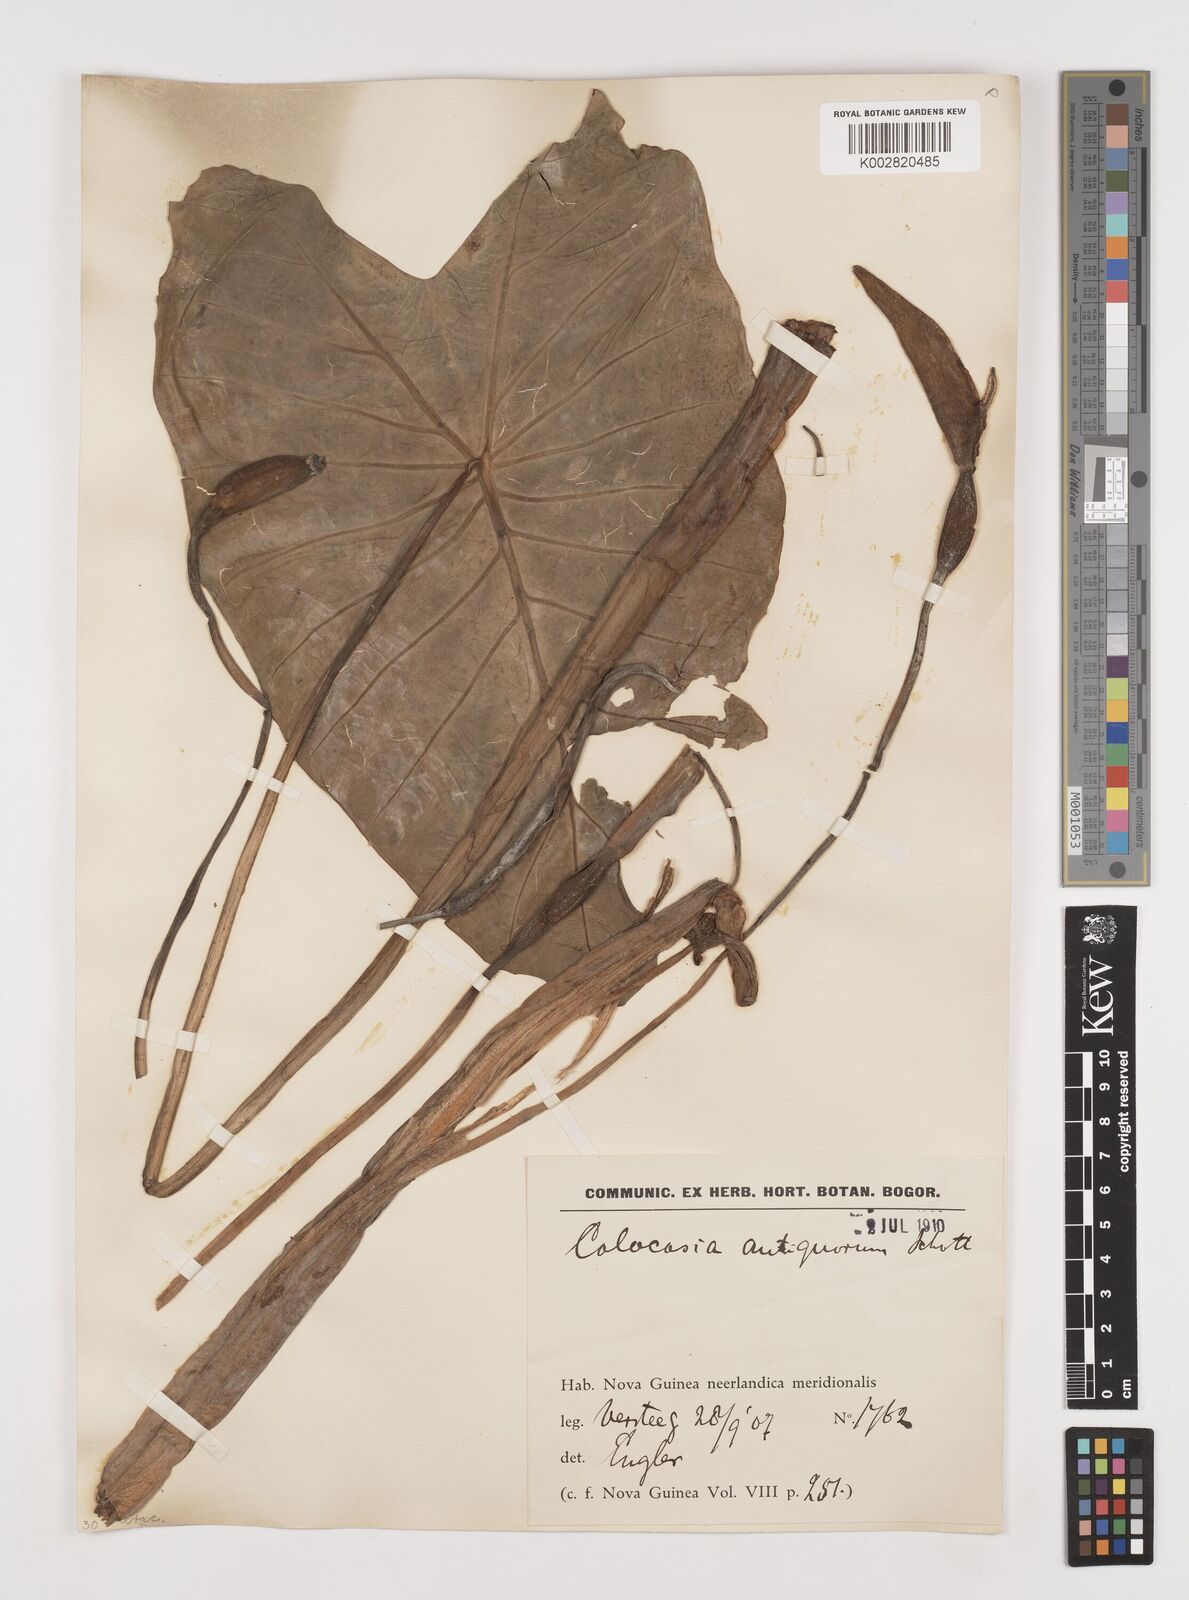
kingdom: Plantae
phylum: Tracheophyta
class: Liliopsida
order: Alismatales
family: Araceae
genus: Colocasia
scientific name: Colocasia esculenta
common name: Taro
